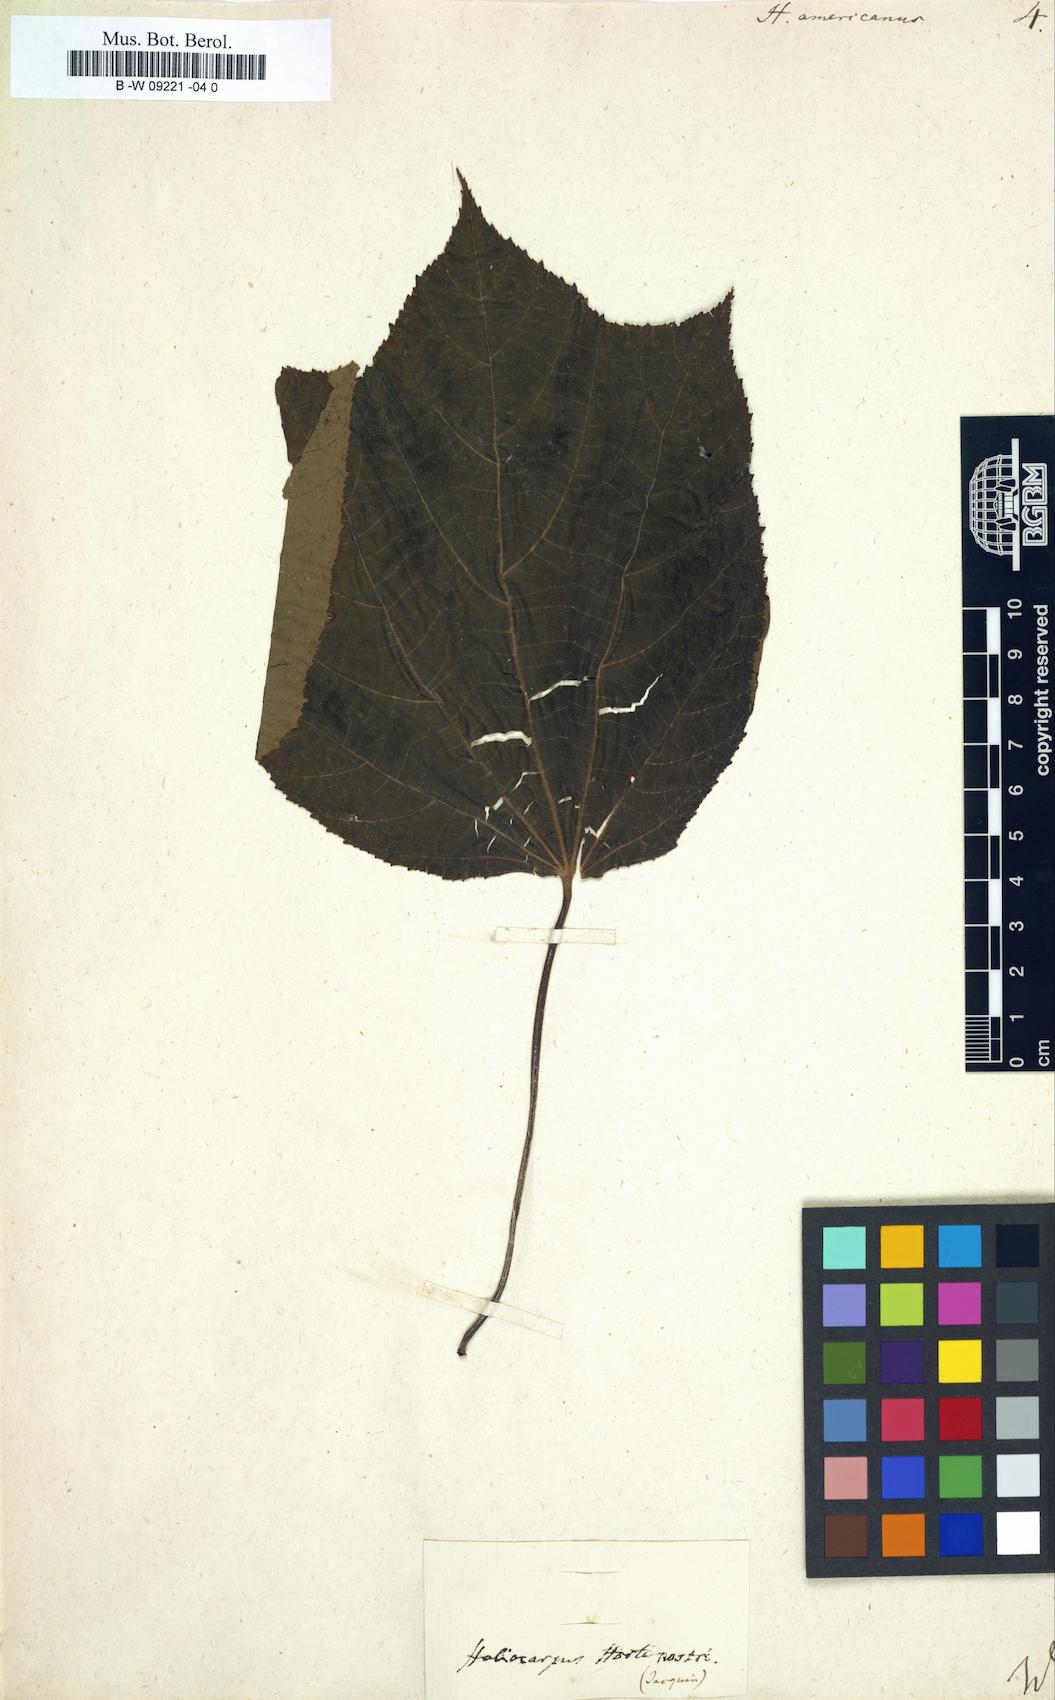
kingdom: Plantae
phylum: Tracheophyta
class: Magnoliopsida
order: Malvales
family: Malvaceae
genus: Heliocarpus
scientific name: Heliocarpus americanus
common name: White moho
